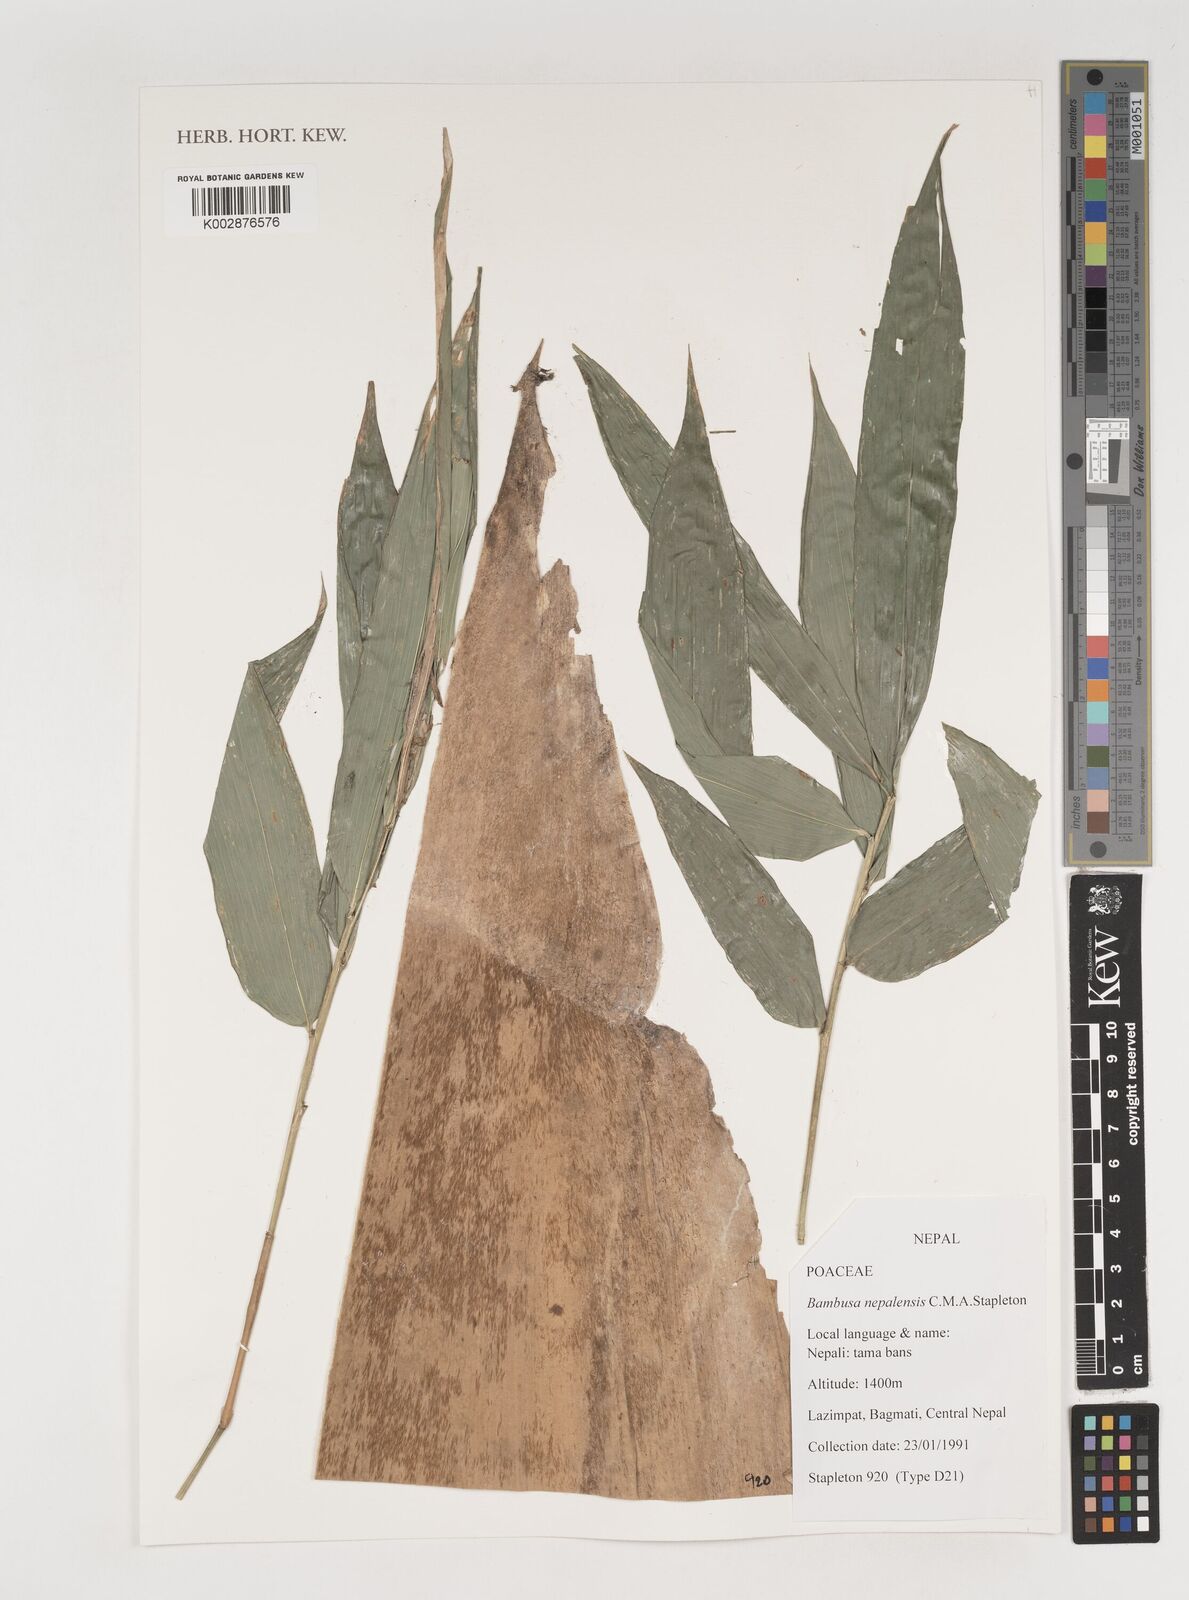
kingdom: Plantae
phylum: Tracheophyta
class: Liliopsida
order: Poales
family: Poaceae
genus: Bambusa
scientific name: Bambusa nepalensis
